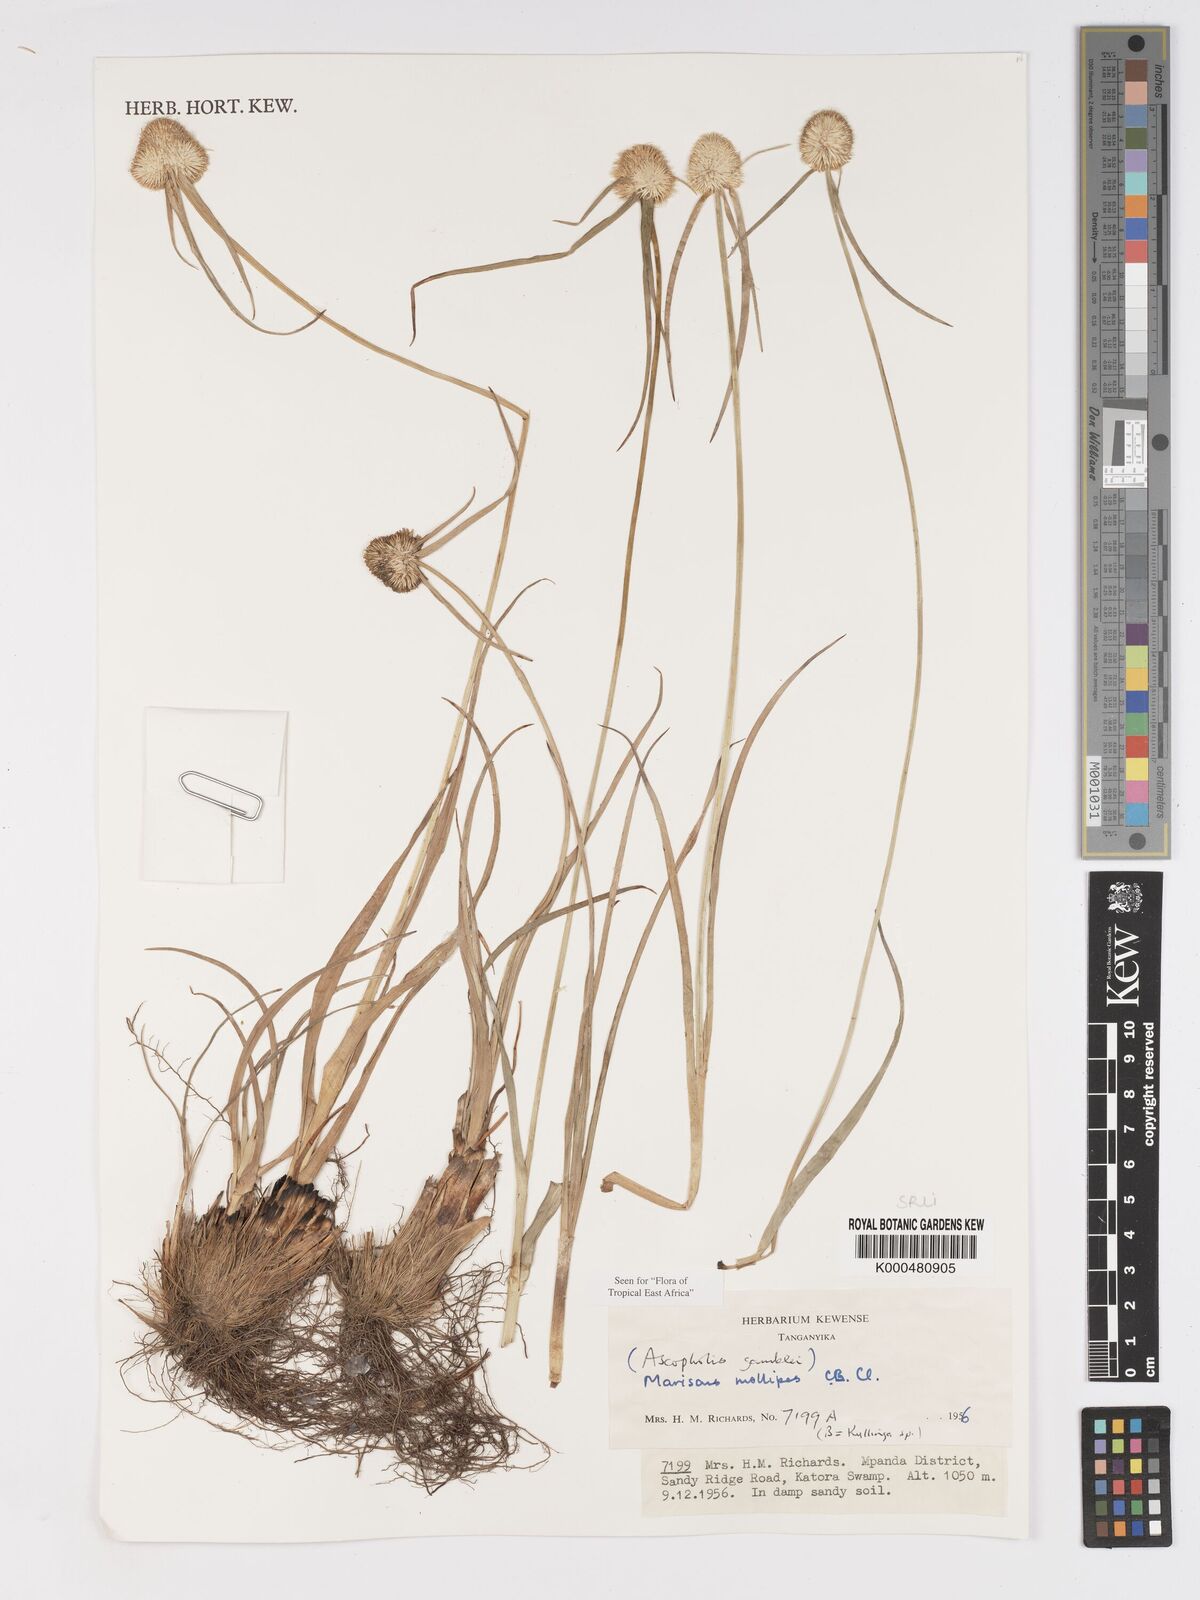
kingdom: Plantae
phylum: Tracheophyta
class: Liliopsida
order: Poales
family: Cyperaceae
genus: Cyperus
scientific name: Cyperus mollipes
